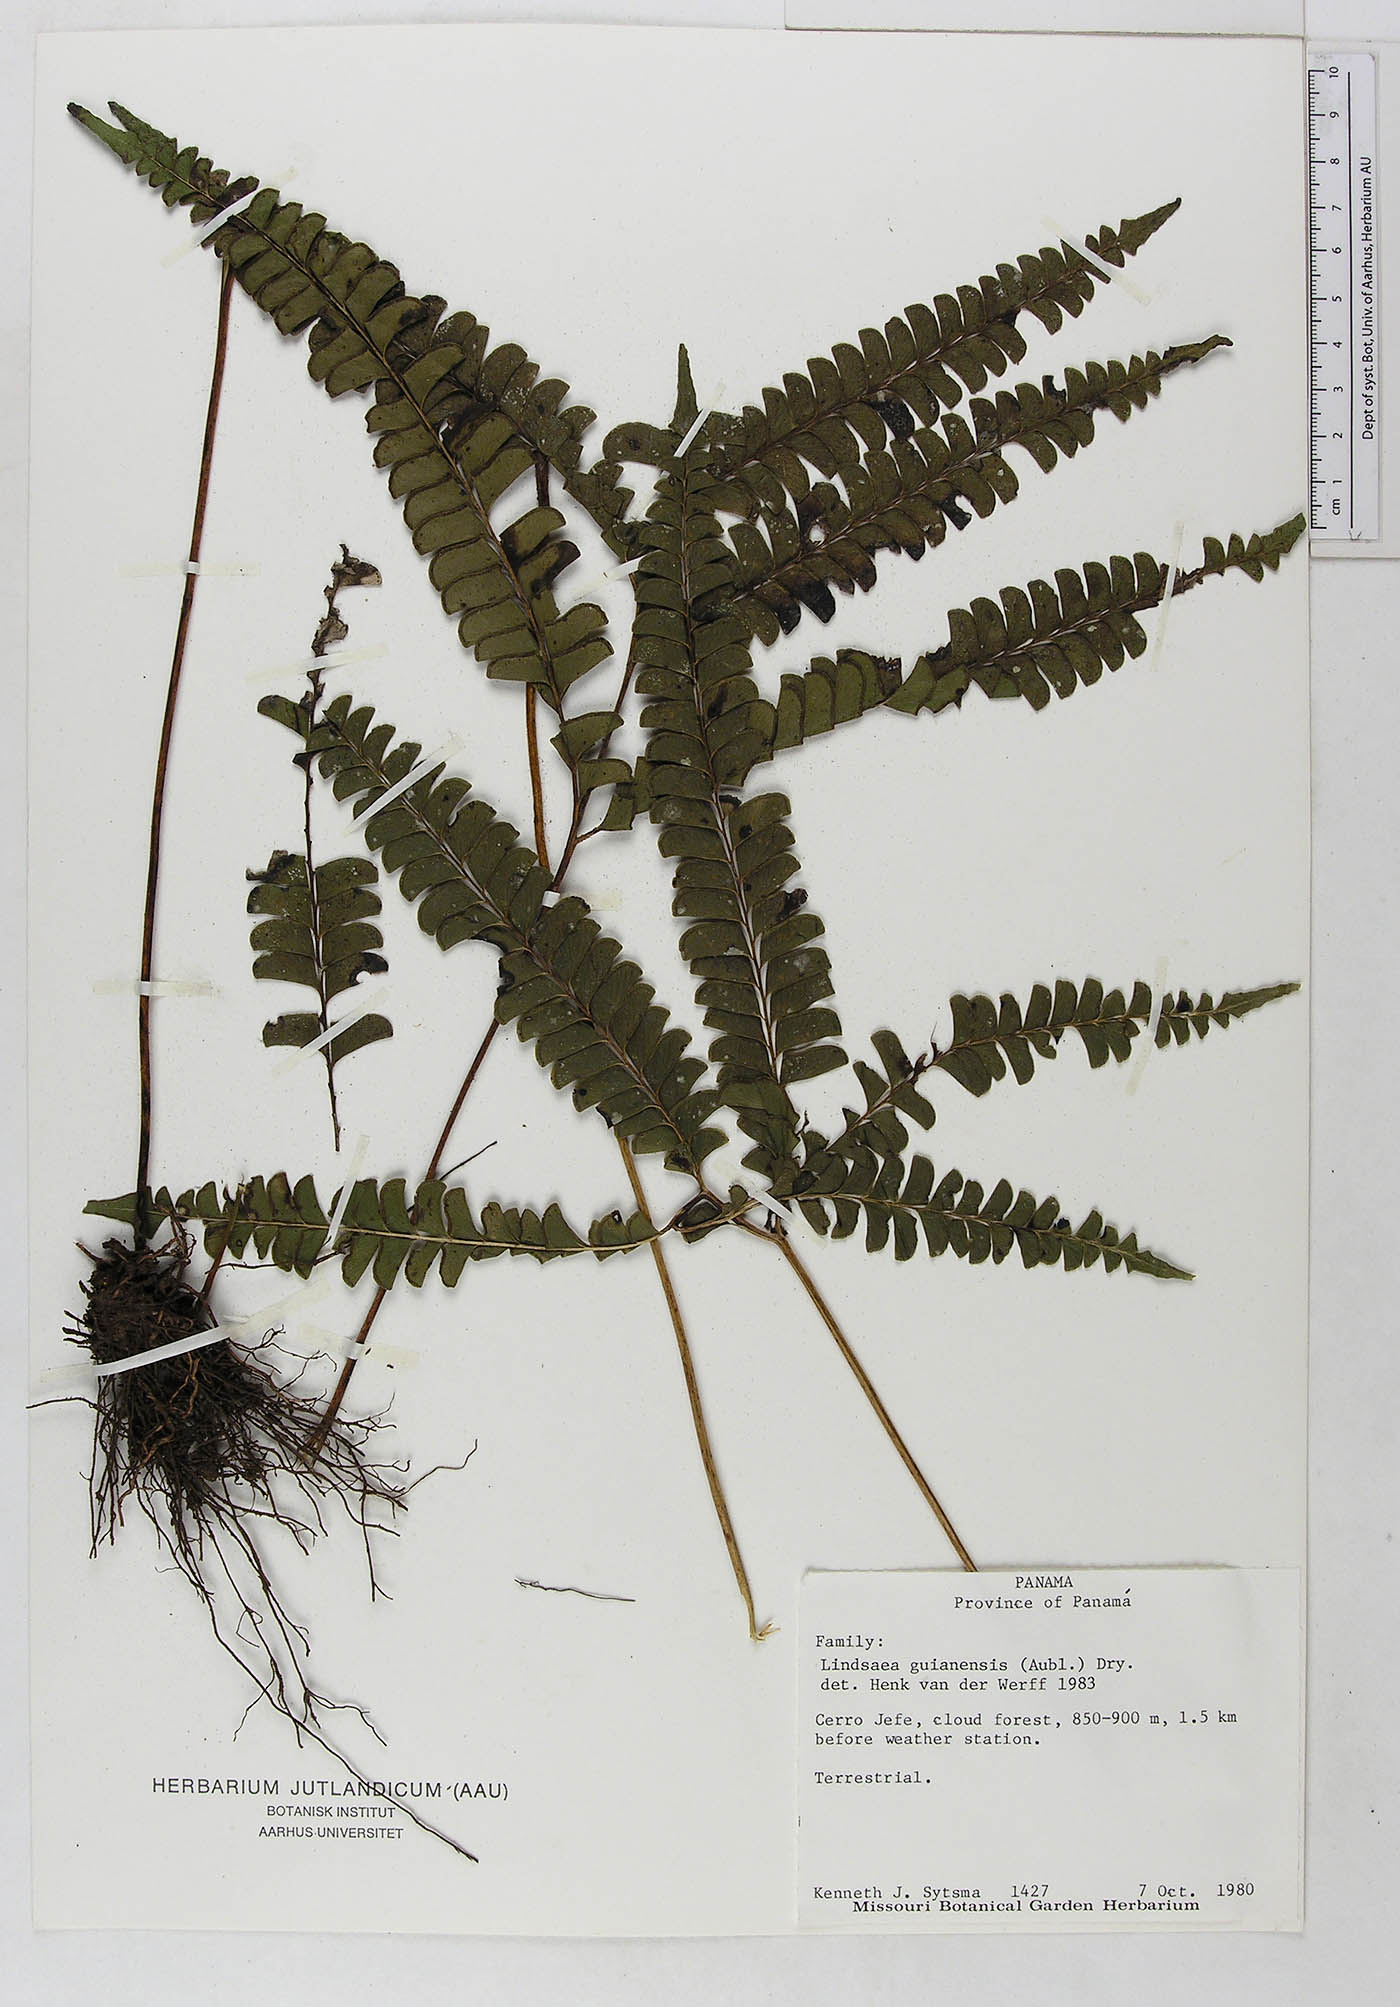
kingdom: Plantae
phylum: Tracheophyta
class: Polypodiopsida
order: Polypodiales
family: Lindsaeaceae
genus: Lindsaea
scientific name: Lindsaea guianensis
